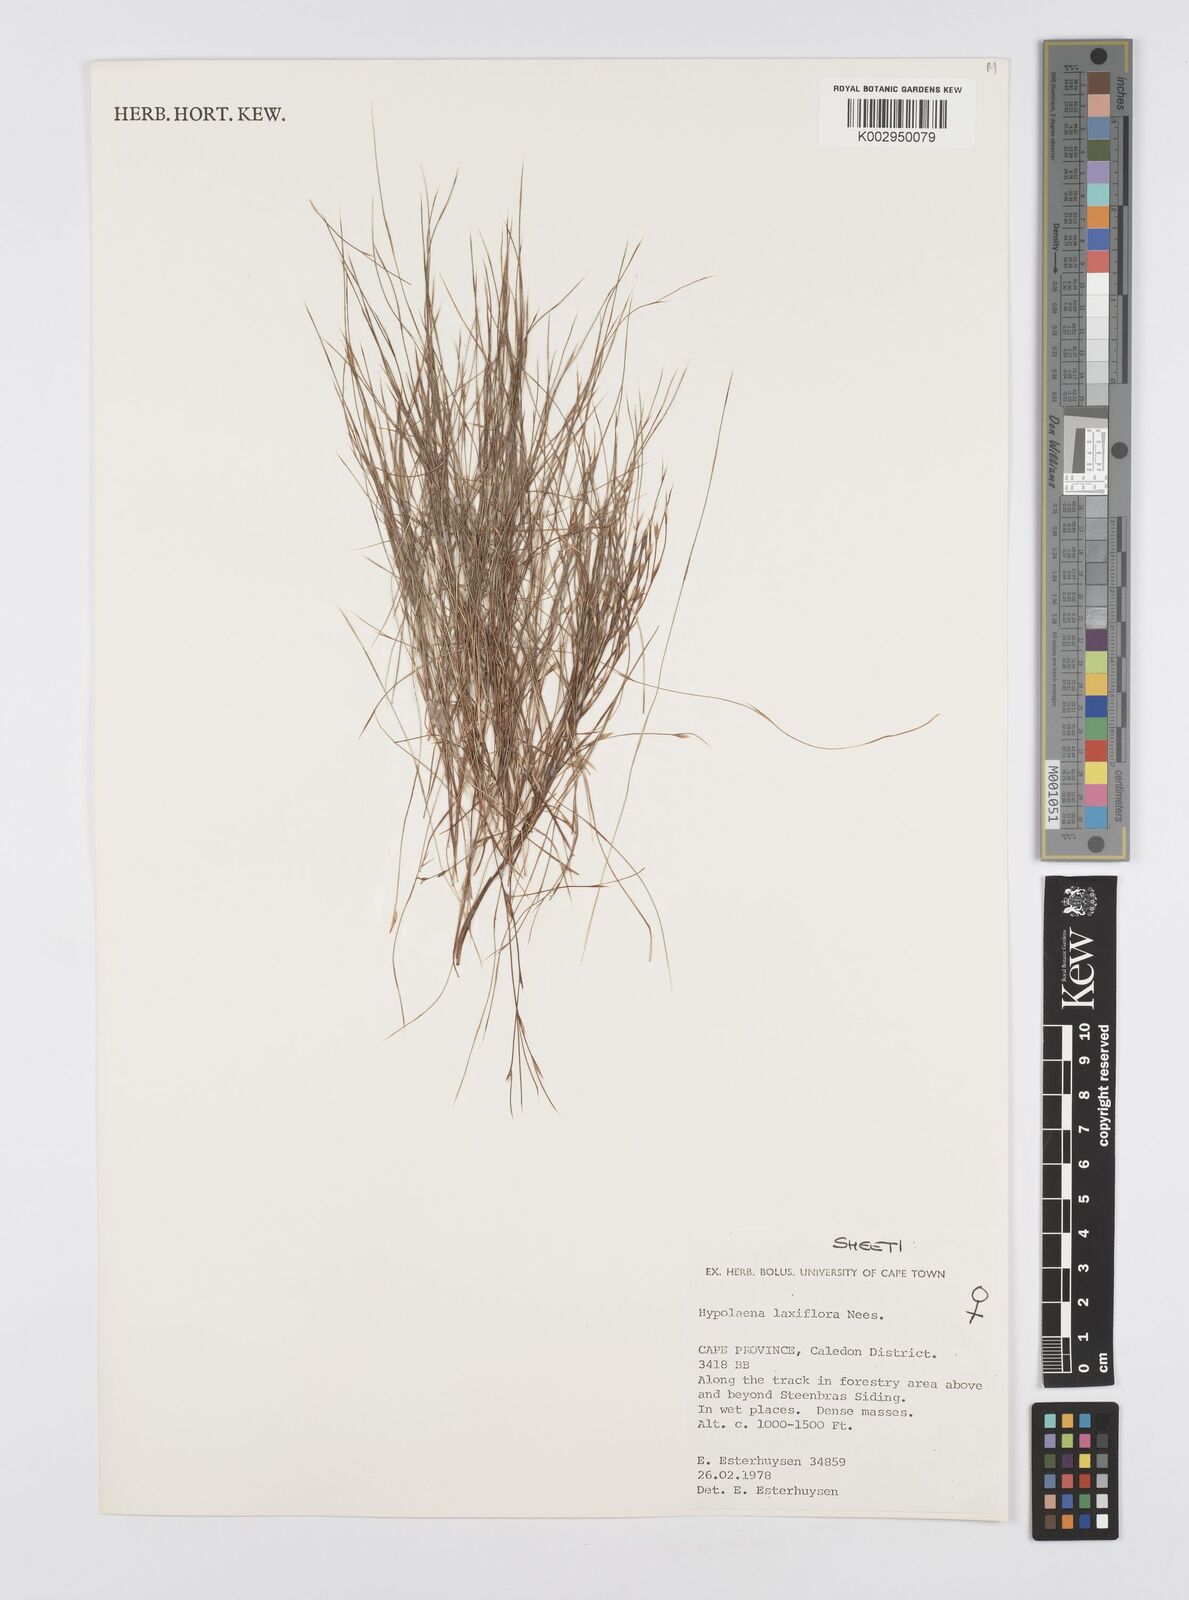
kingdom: Plantae
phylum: Tracheophyta
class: Liliopsida
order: Poales
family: Restionaceae
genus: Anthochortus
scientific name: Anthochortus laxiflorus
